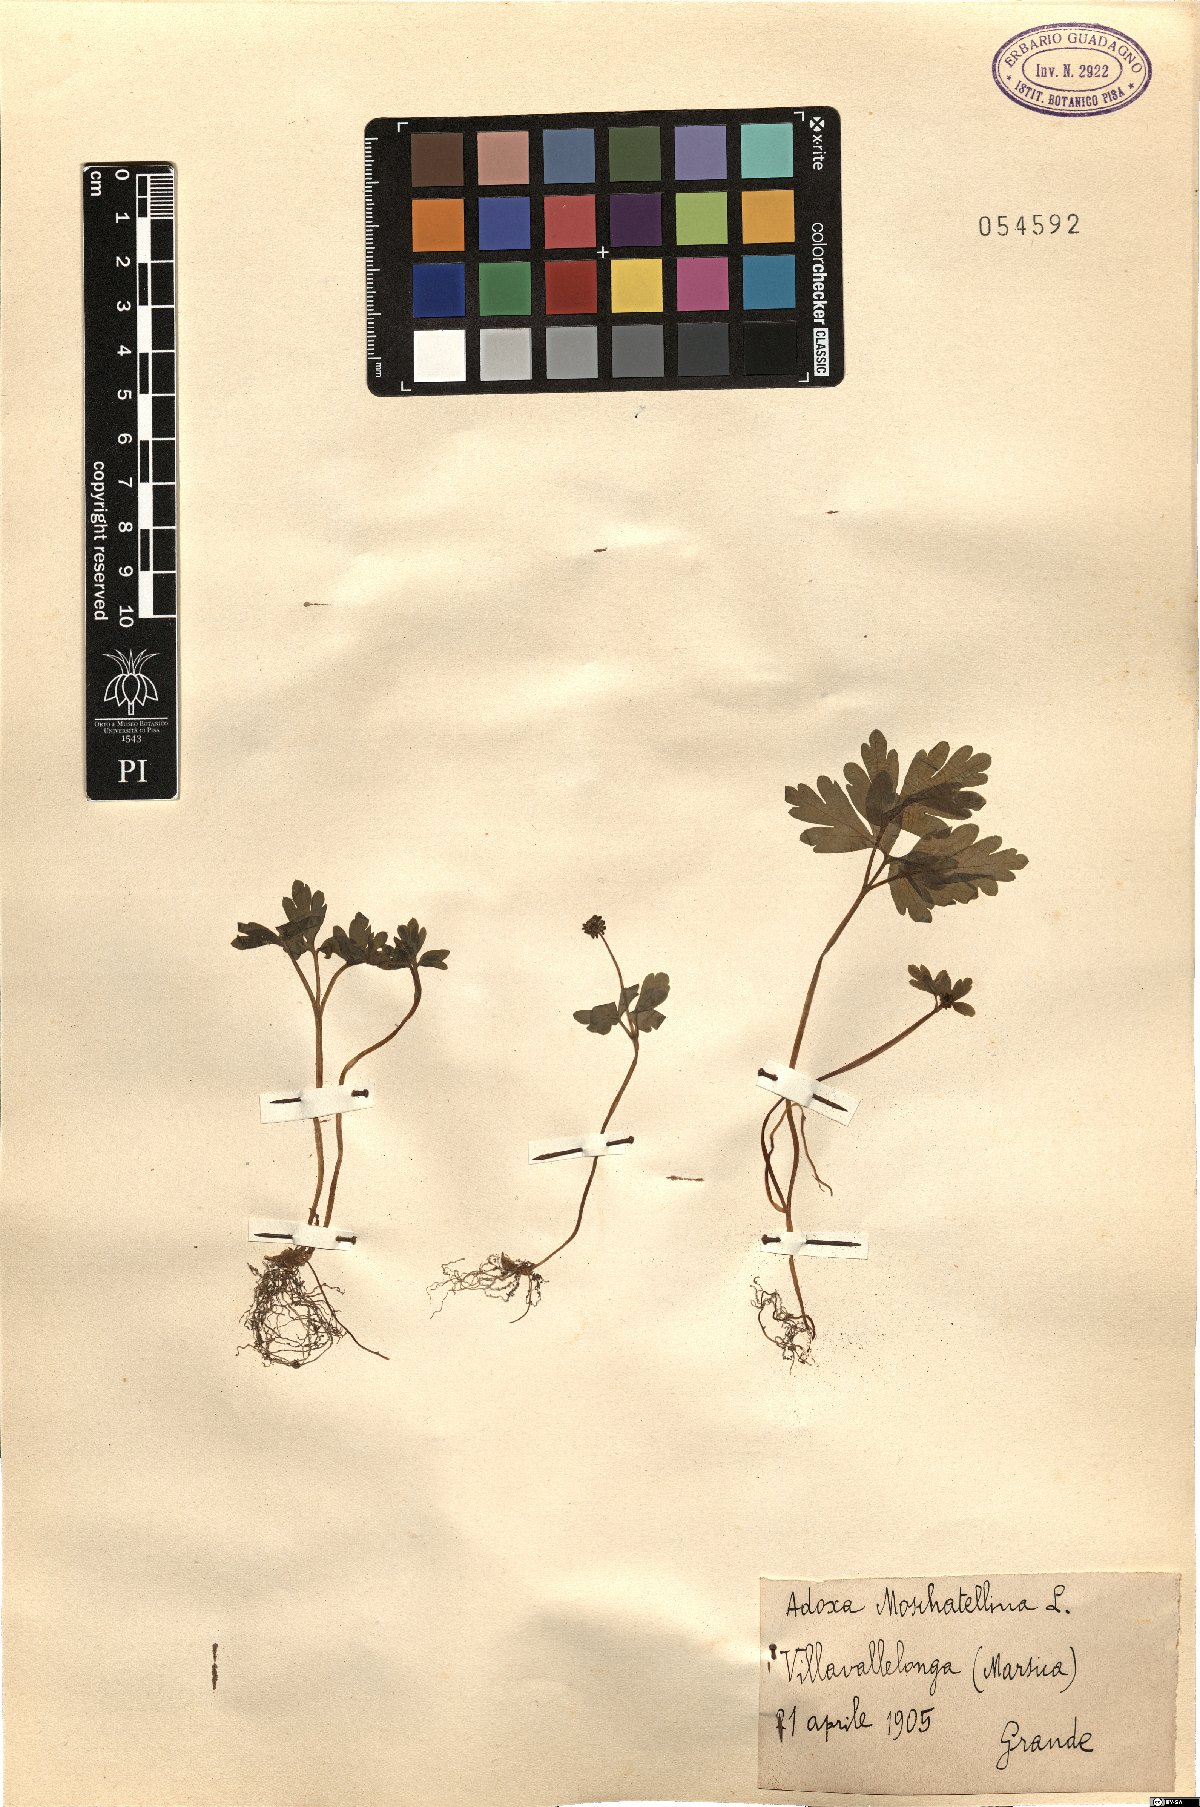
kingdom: Plantae
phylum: Tracheophyta
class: Magnoliopsida
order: Dipsacales
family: Viburnaceae
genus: Adoxa
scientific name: Adoxa moschatellina
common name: Moschatel
